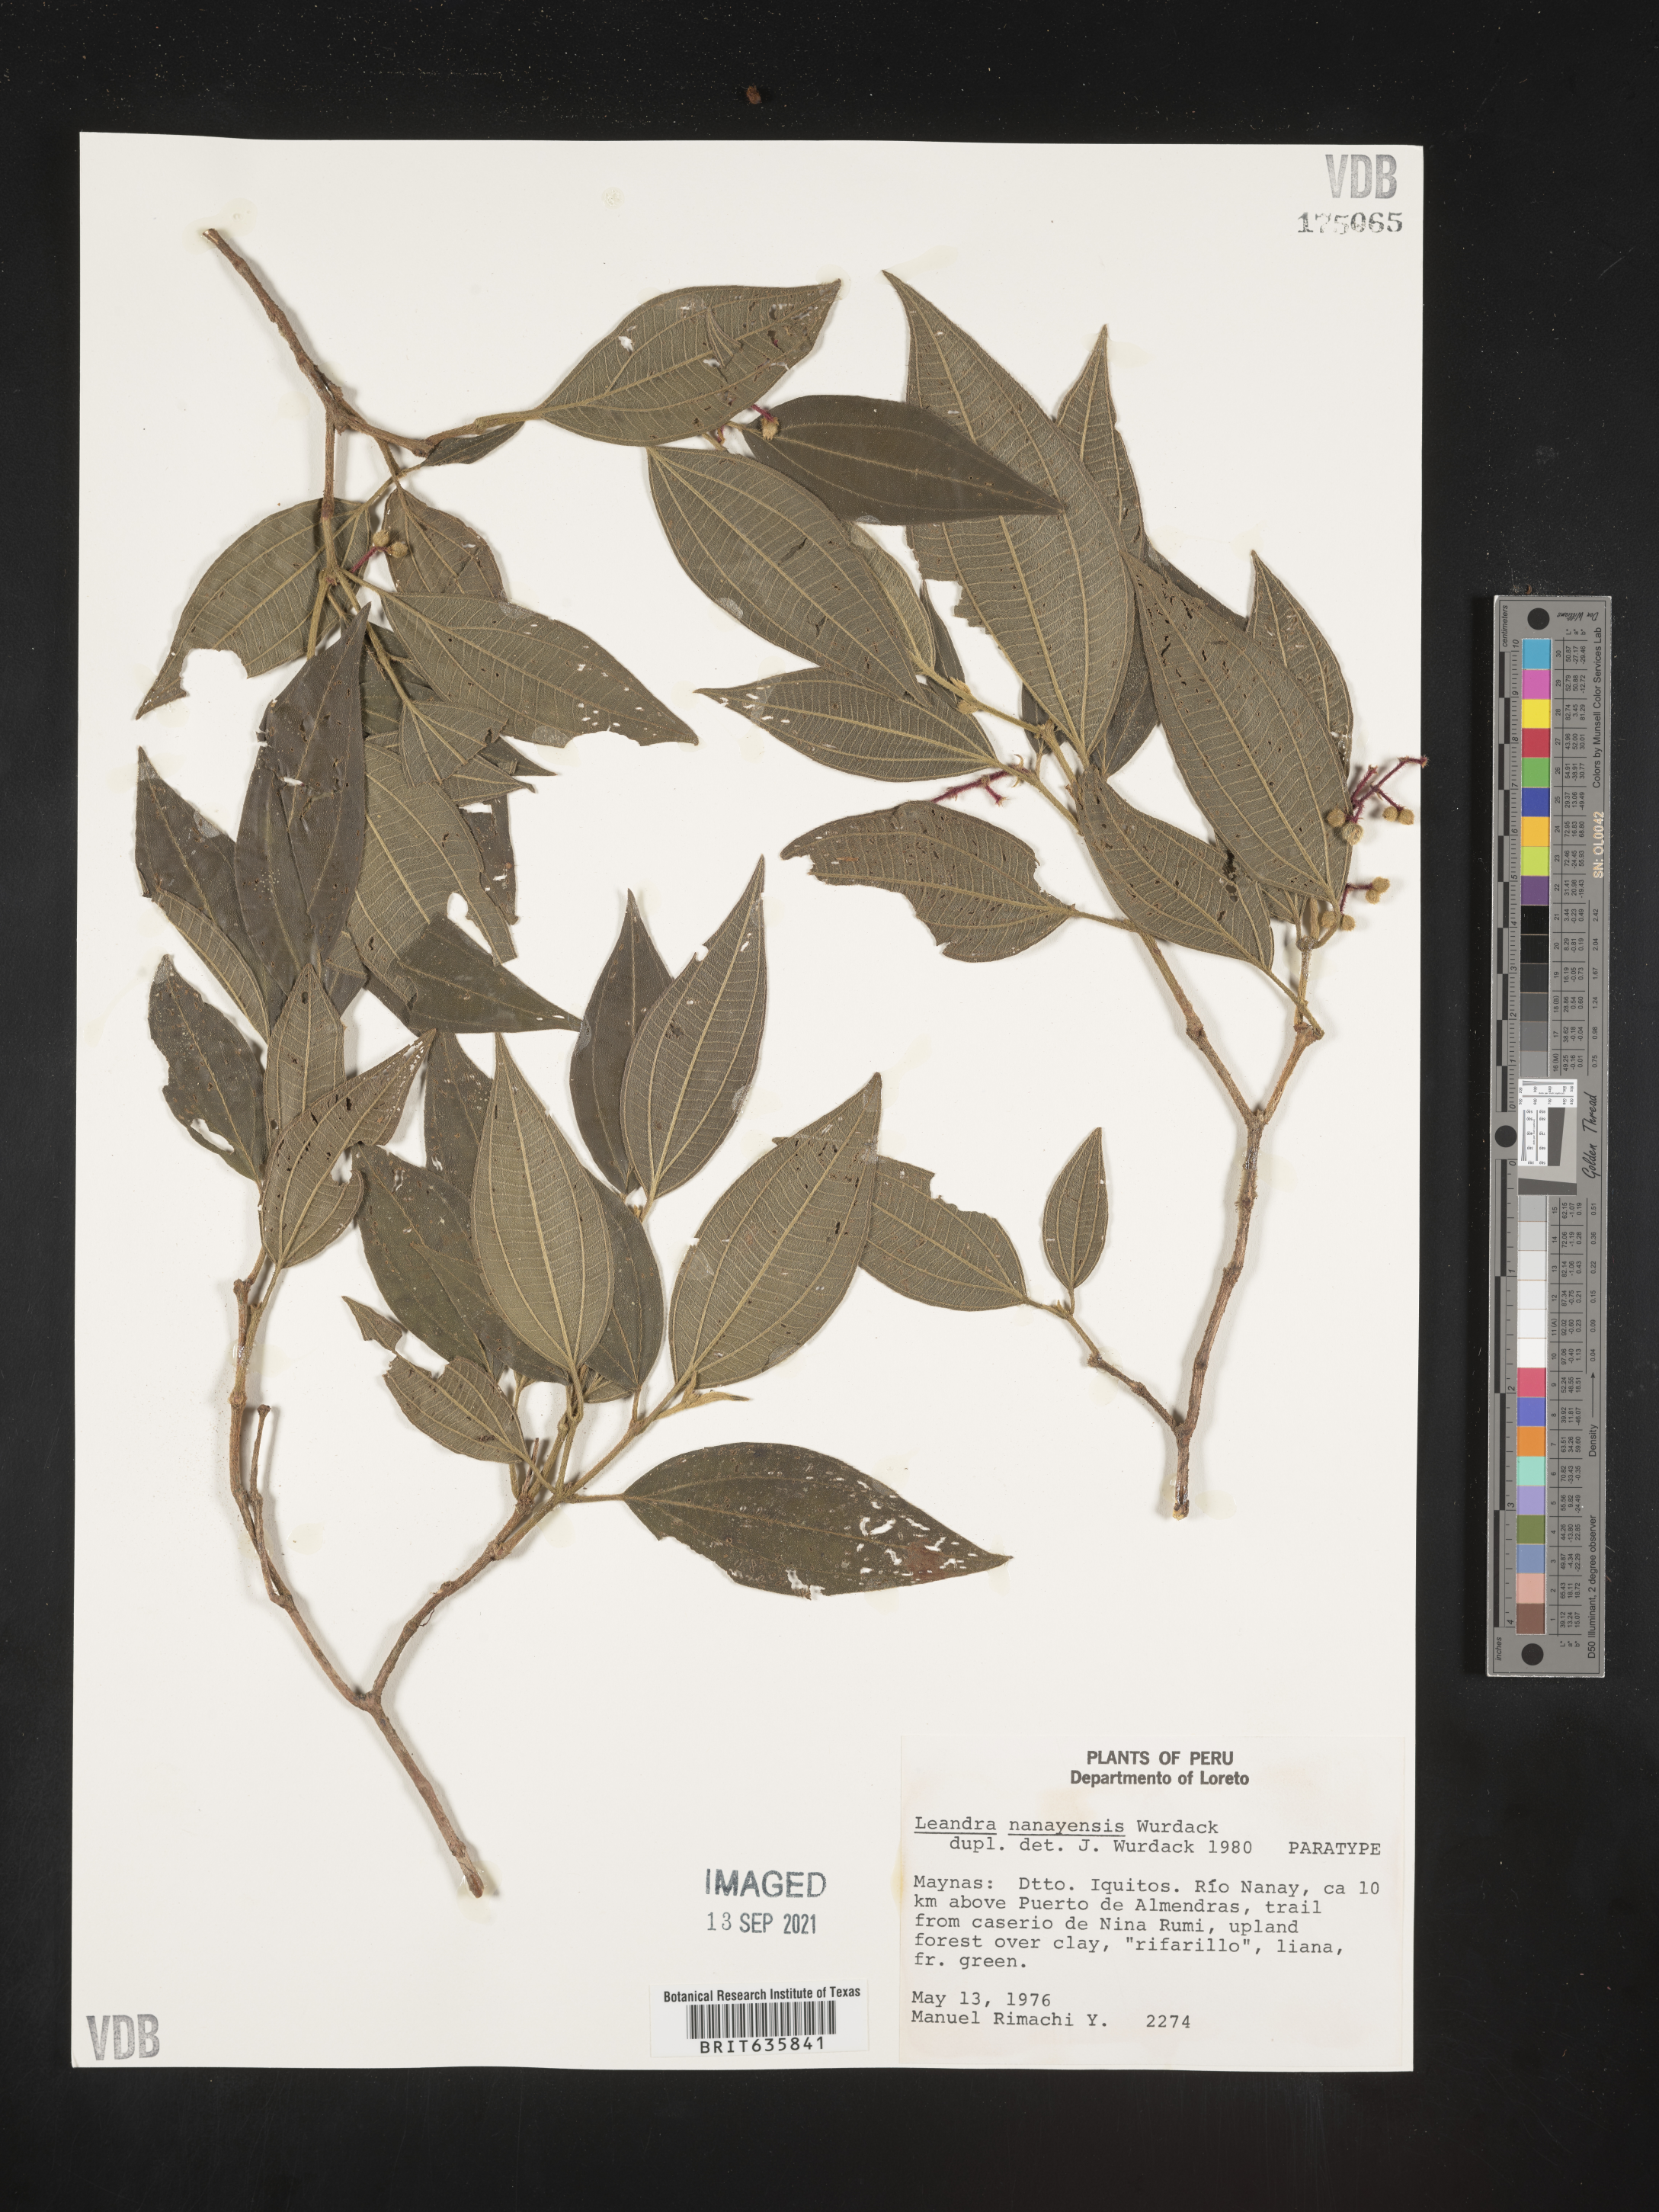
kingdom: Plantae
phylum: Tracheophyta
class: Magnoliopsida
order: Myrtales
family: Melastomataceae
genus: Miconia
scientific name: Miconia
